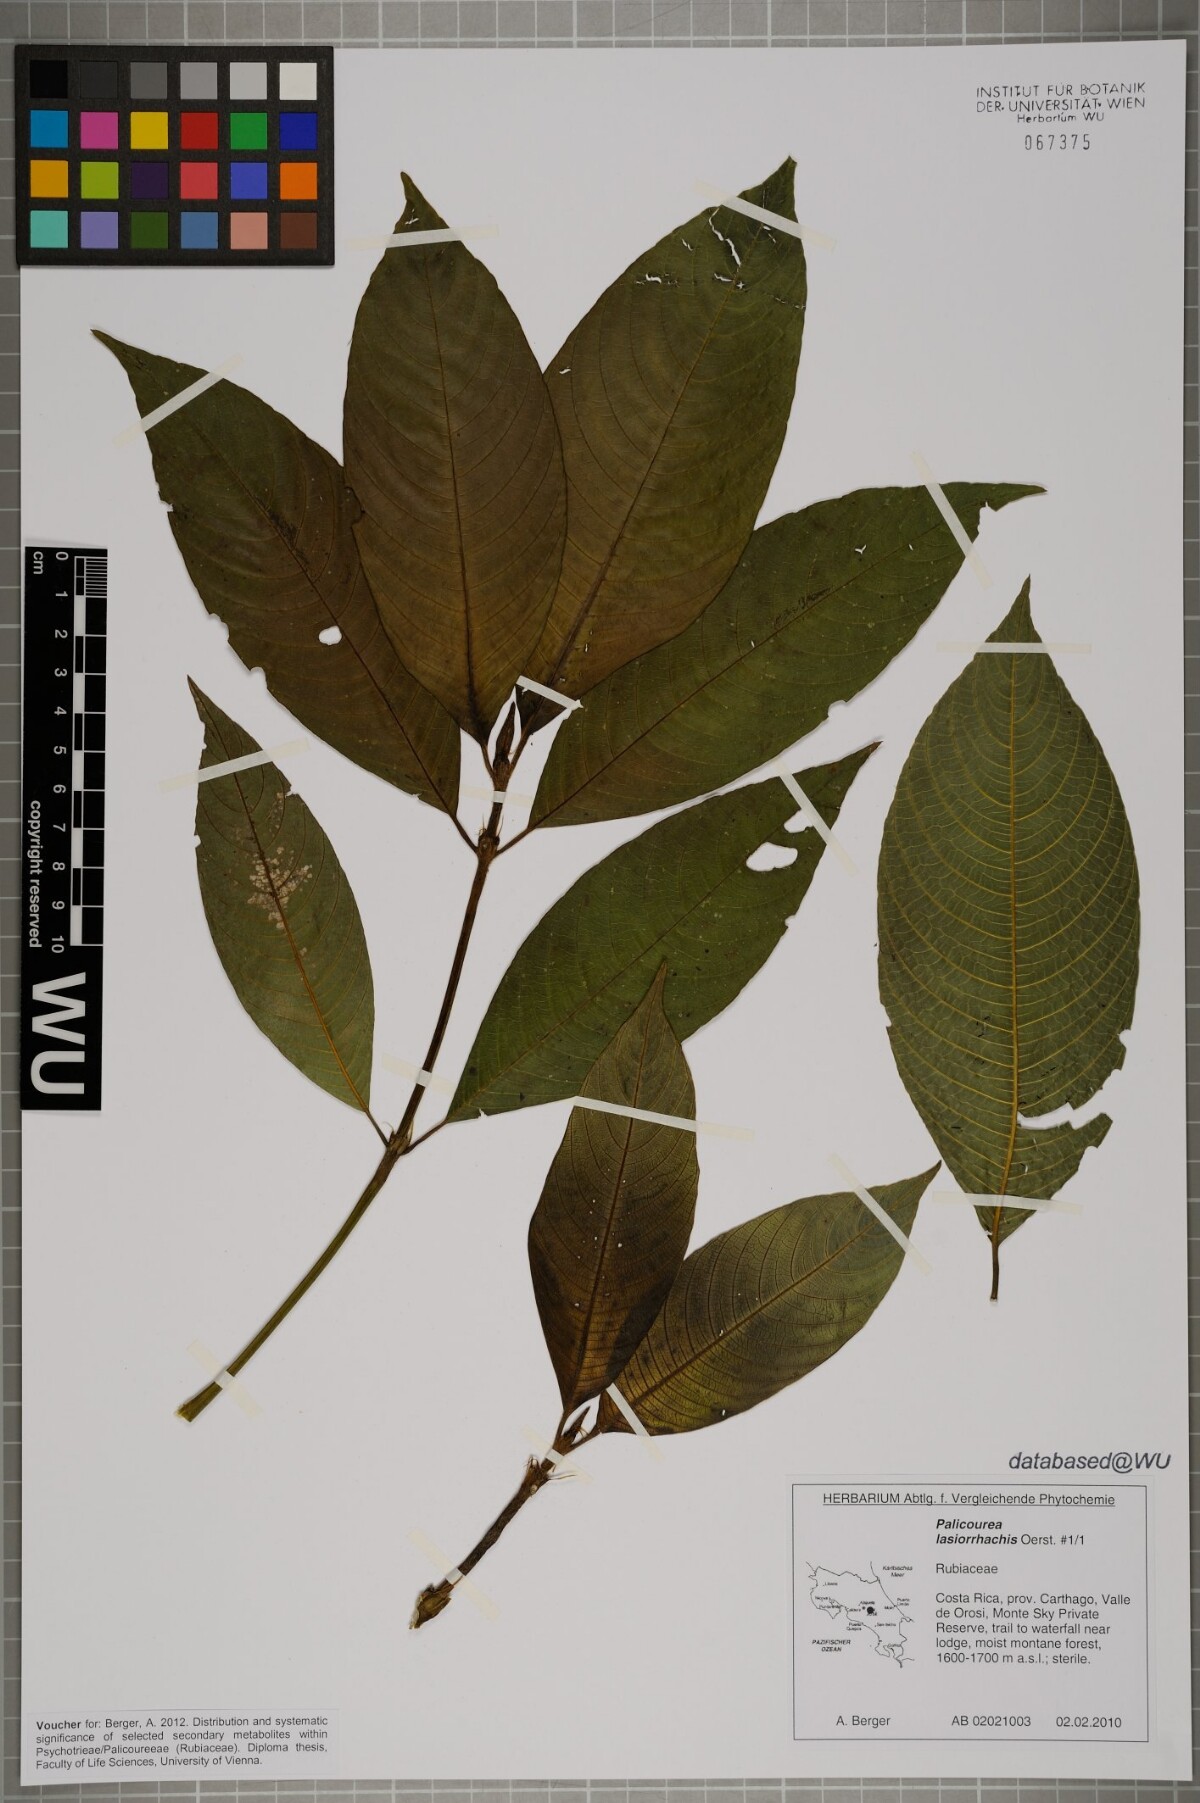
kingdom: Plantae
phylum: Tracheophyta
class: Magnoliopsida
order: Gentianales
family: Rubiaceae
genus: Palicourea
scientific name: Palicourea lasiorrhachis
